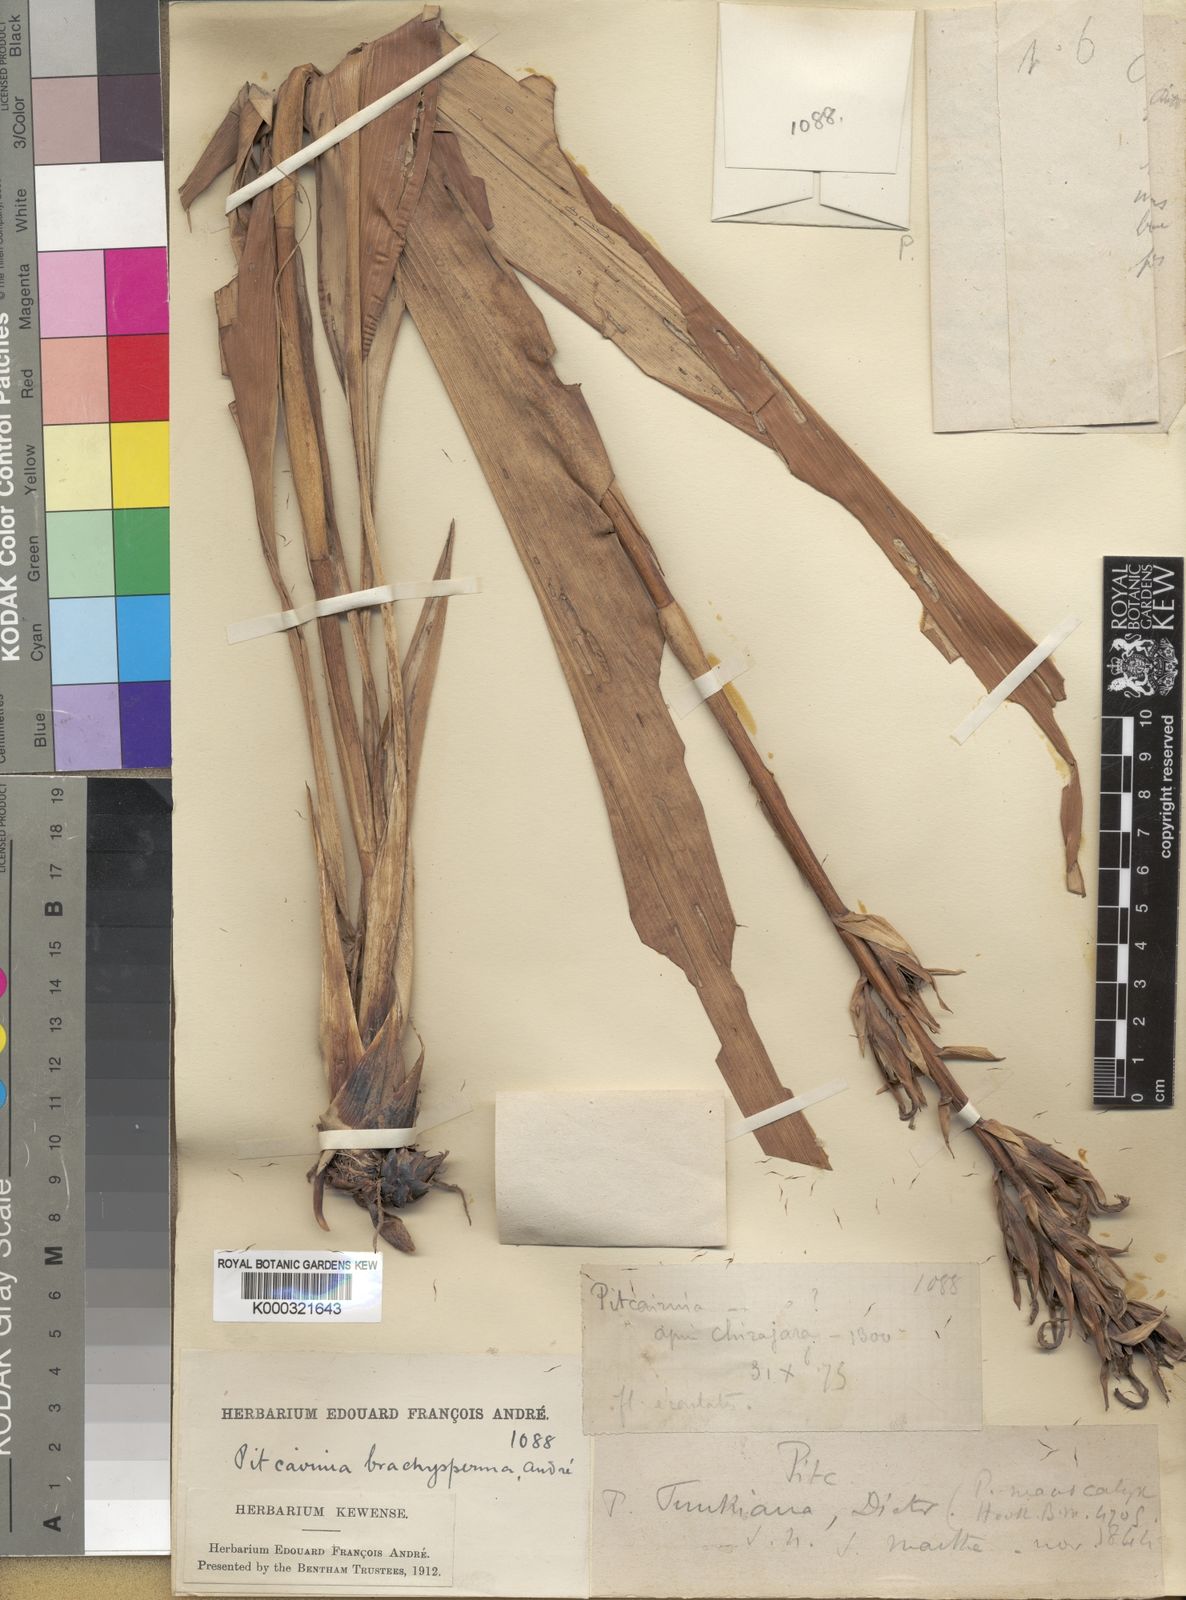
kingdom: Plantae
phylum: Tracheophyta
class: Liliopsida
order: Poales
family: Bromeliaceae
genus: Pitcairnia
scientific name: Pitcairnia
